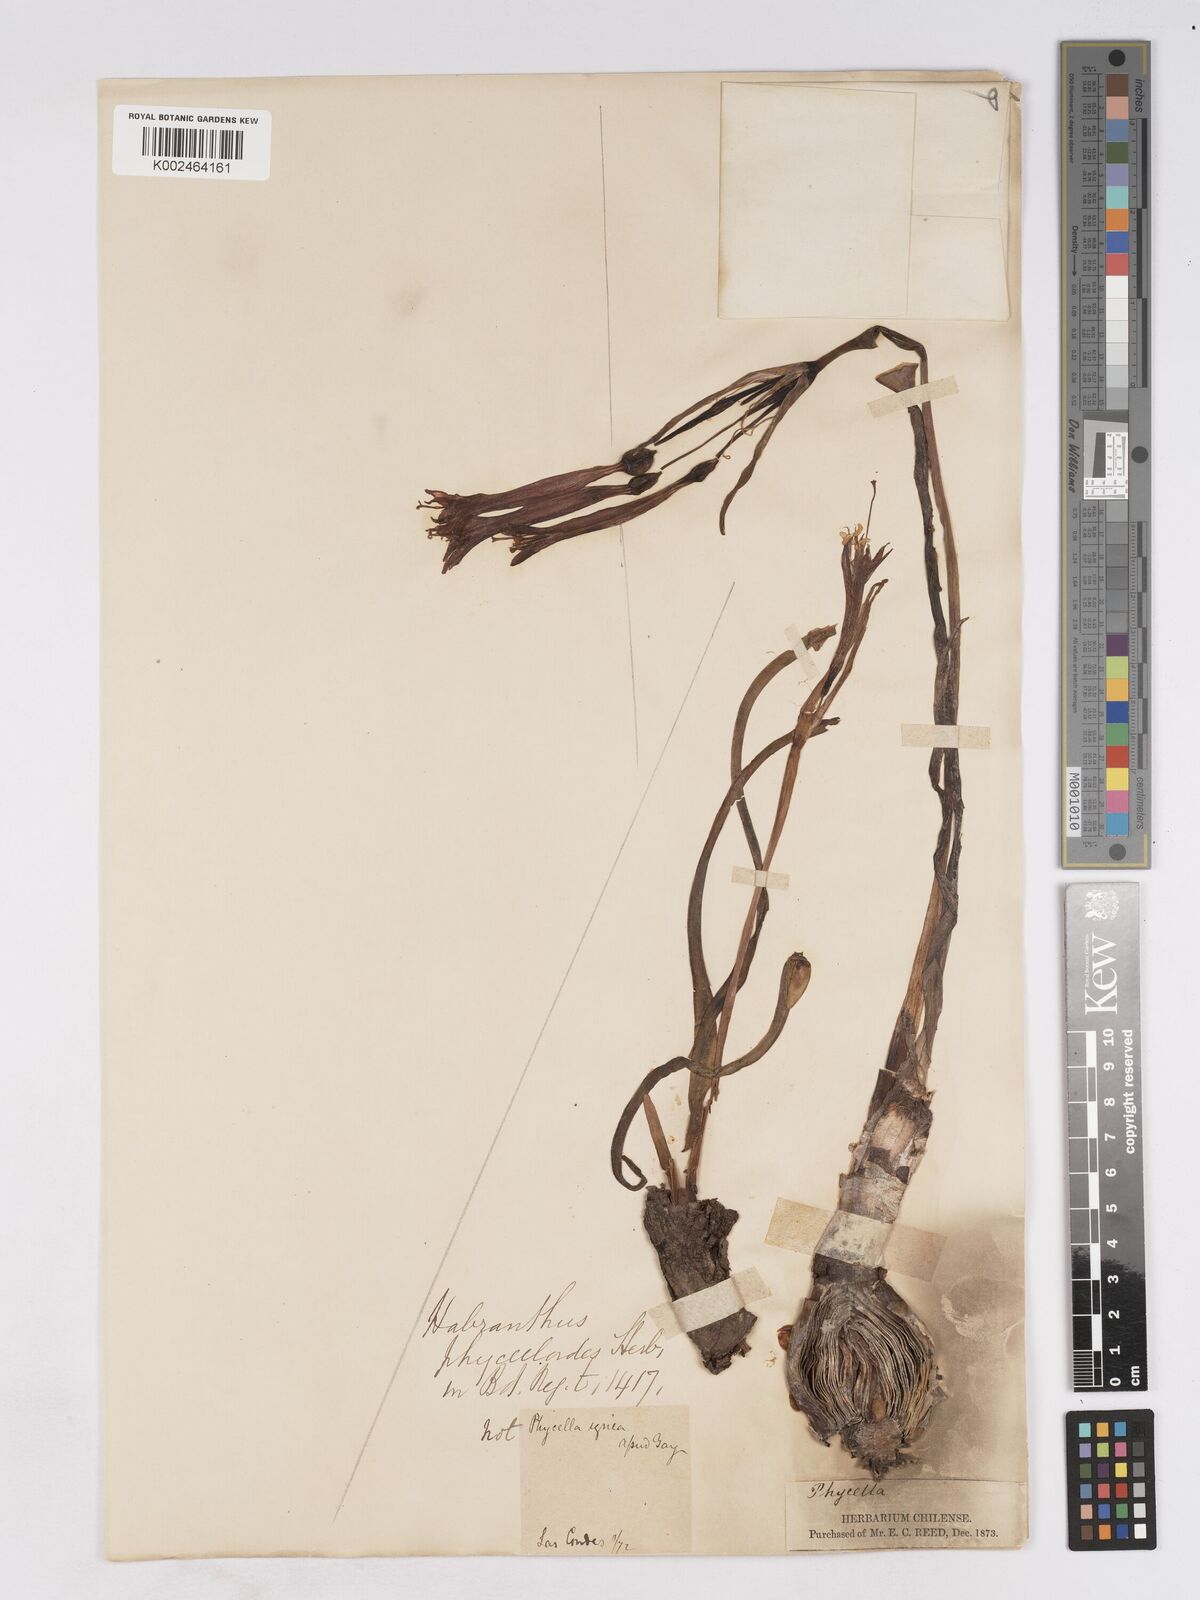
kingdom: Plantae
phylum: Tracheophyta
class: Liliopsida
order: Asparagales
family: Amaryllidaceae
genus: Zephyranthes
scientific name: Zephyranthes phycelloides
